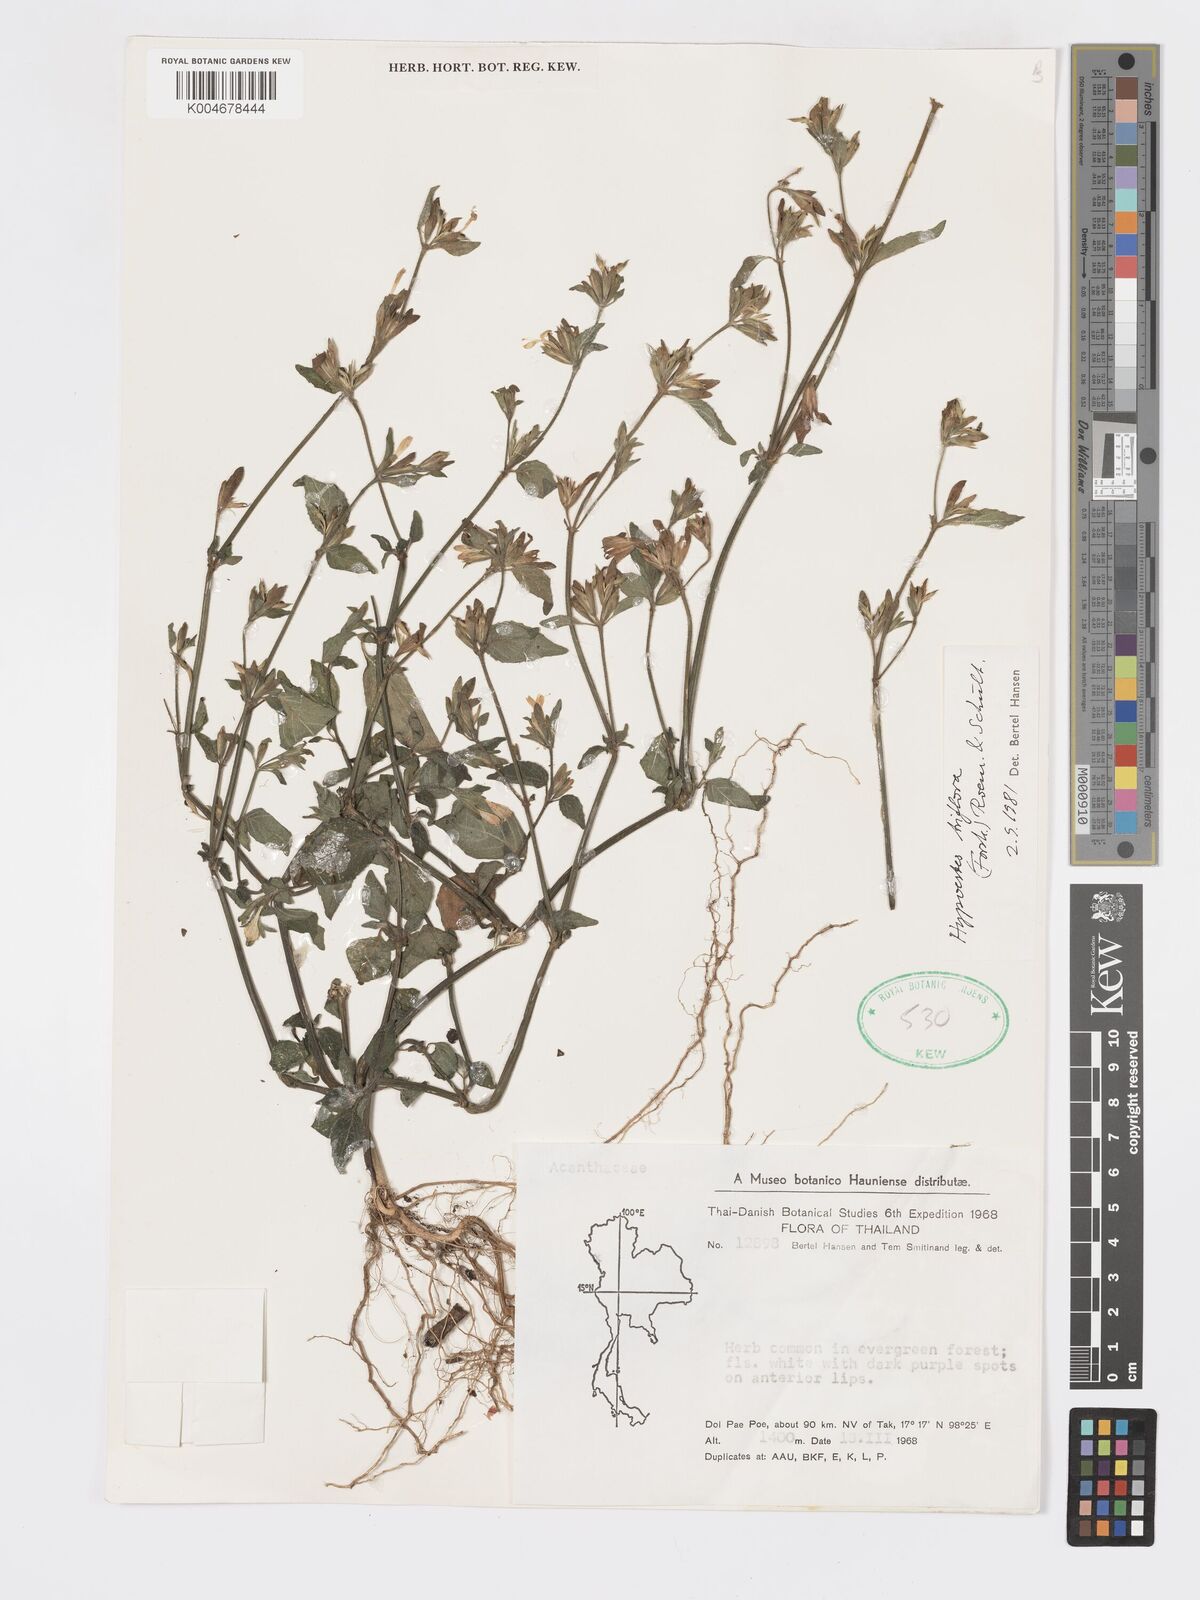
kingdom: Plantae
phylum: Tracheophyta
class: Magnoliopsida
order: Lamiales
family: Acanthaceae
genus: Hypoestes
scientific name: Hypoestes triflora
